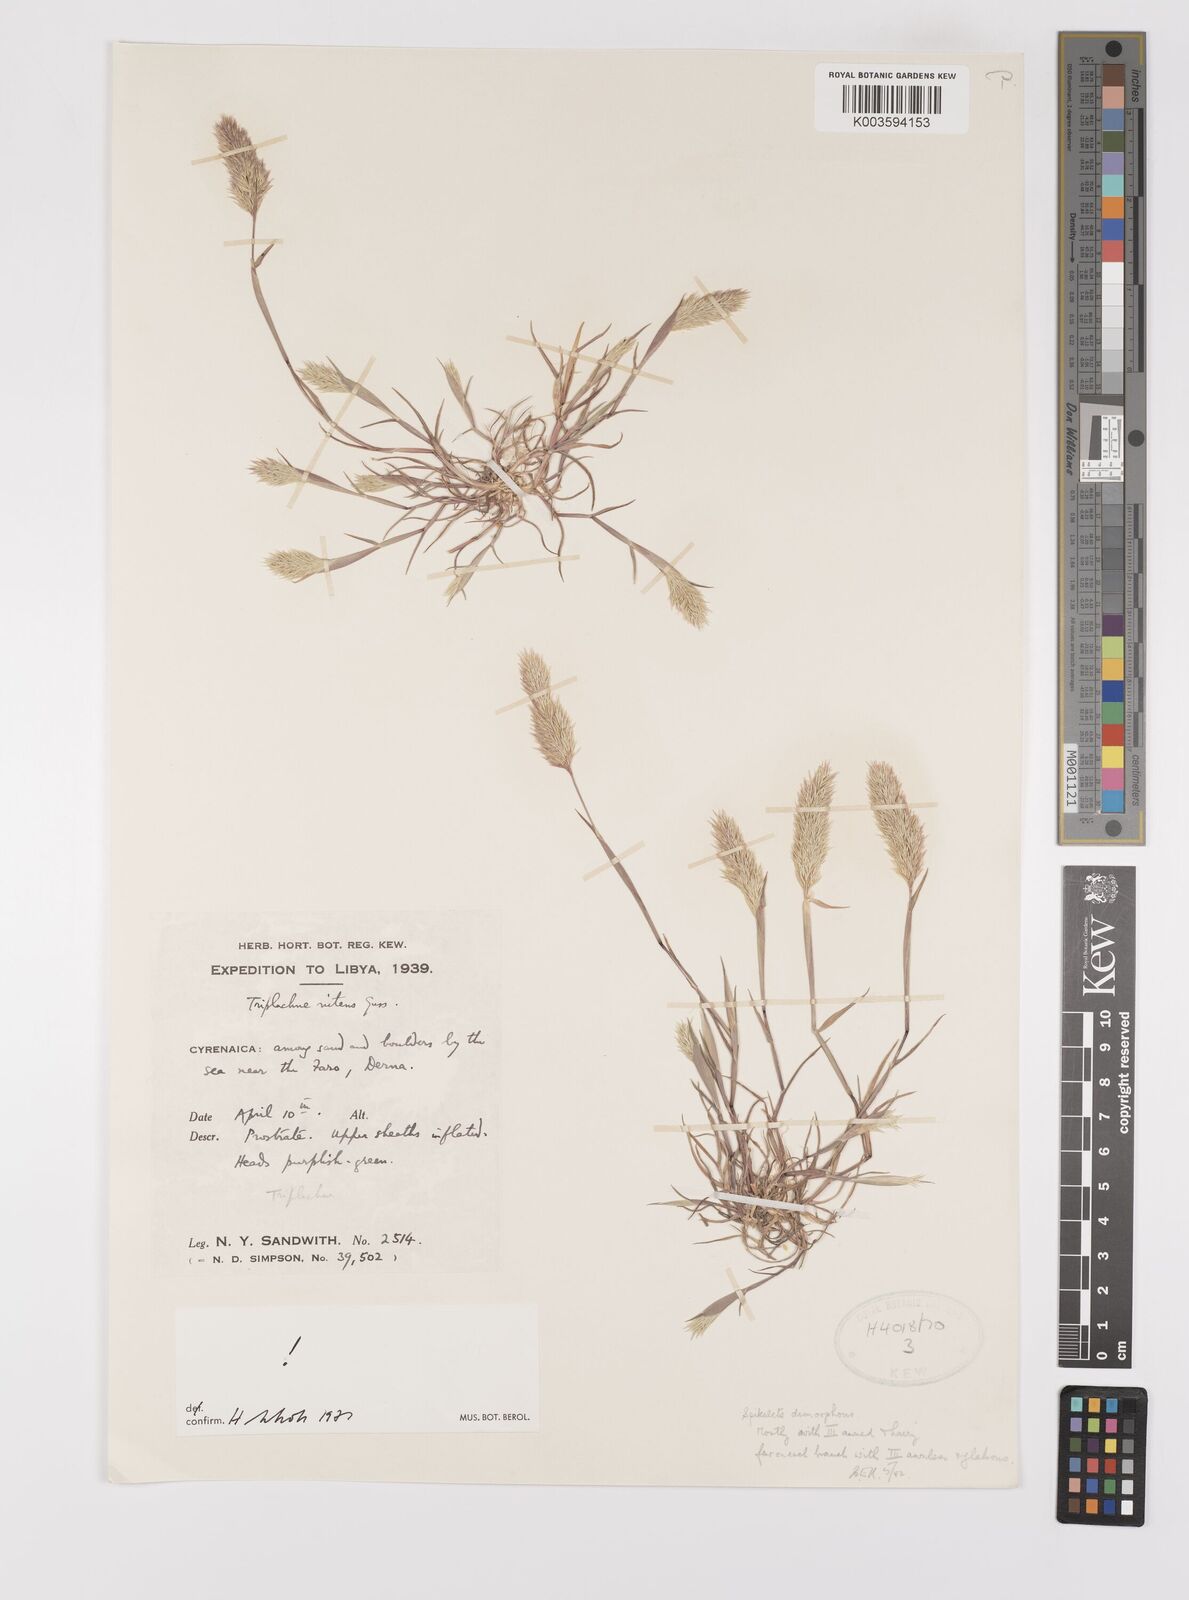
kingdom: Plantae
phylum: Tracheophyta
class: Liliopsida
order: Poales
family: Poaceae
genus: Triplachne
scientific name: Triplachne nitens
